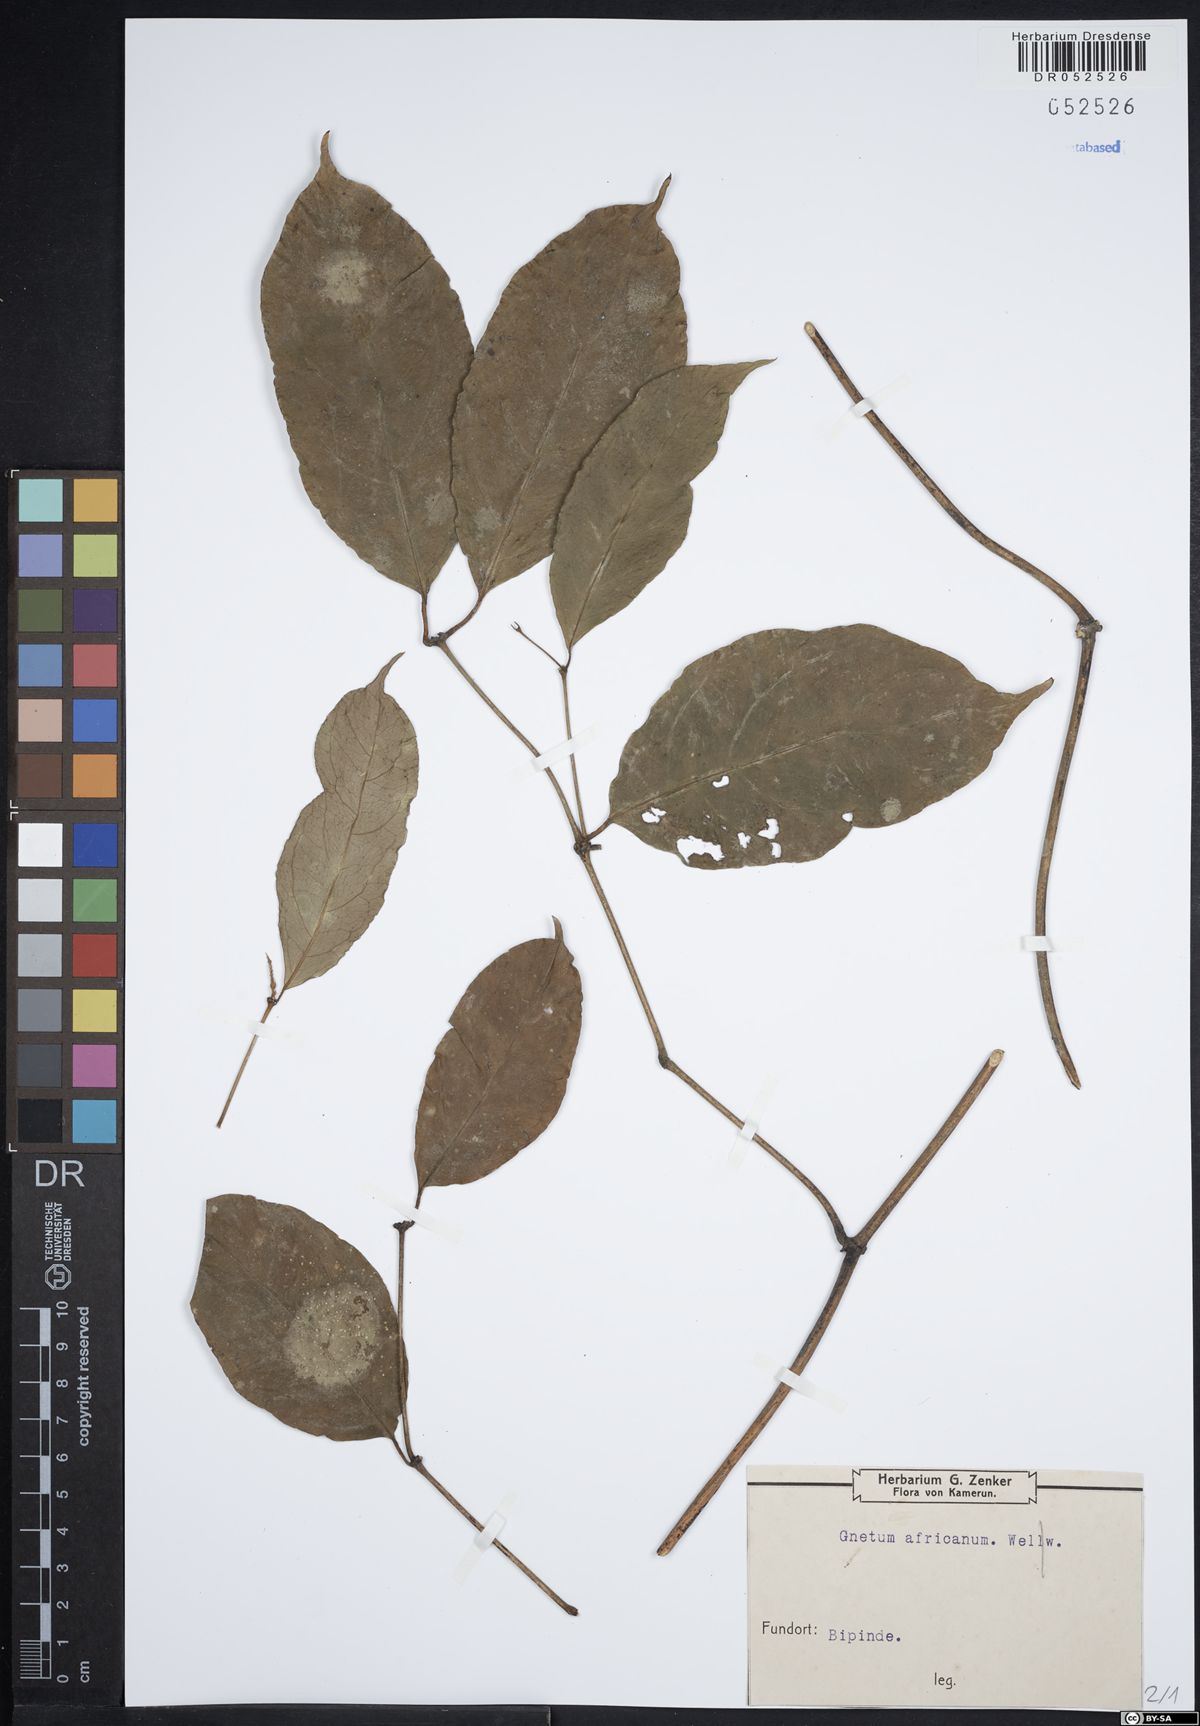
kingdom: Plantae
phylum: Tracheophyta
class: Gnetopsida
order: Gnetales
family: Gnetaceae
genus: Gnetum
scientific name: Gnetum africanum
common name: Eru
